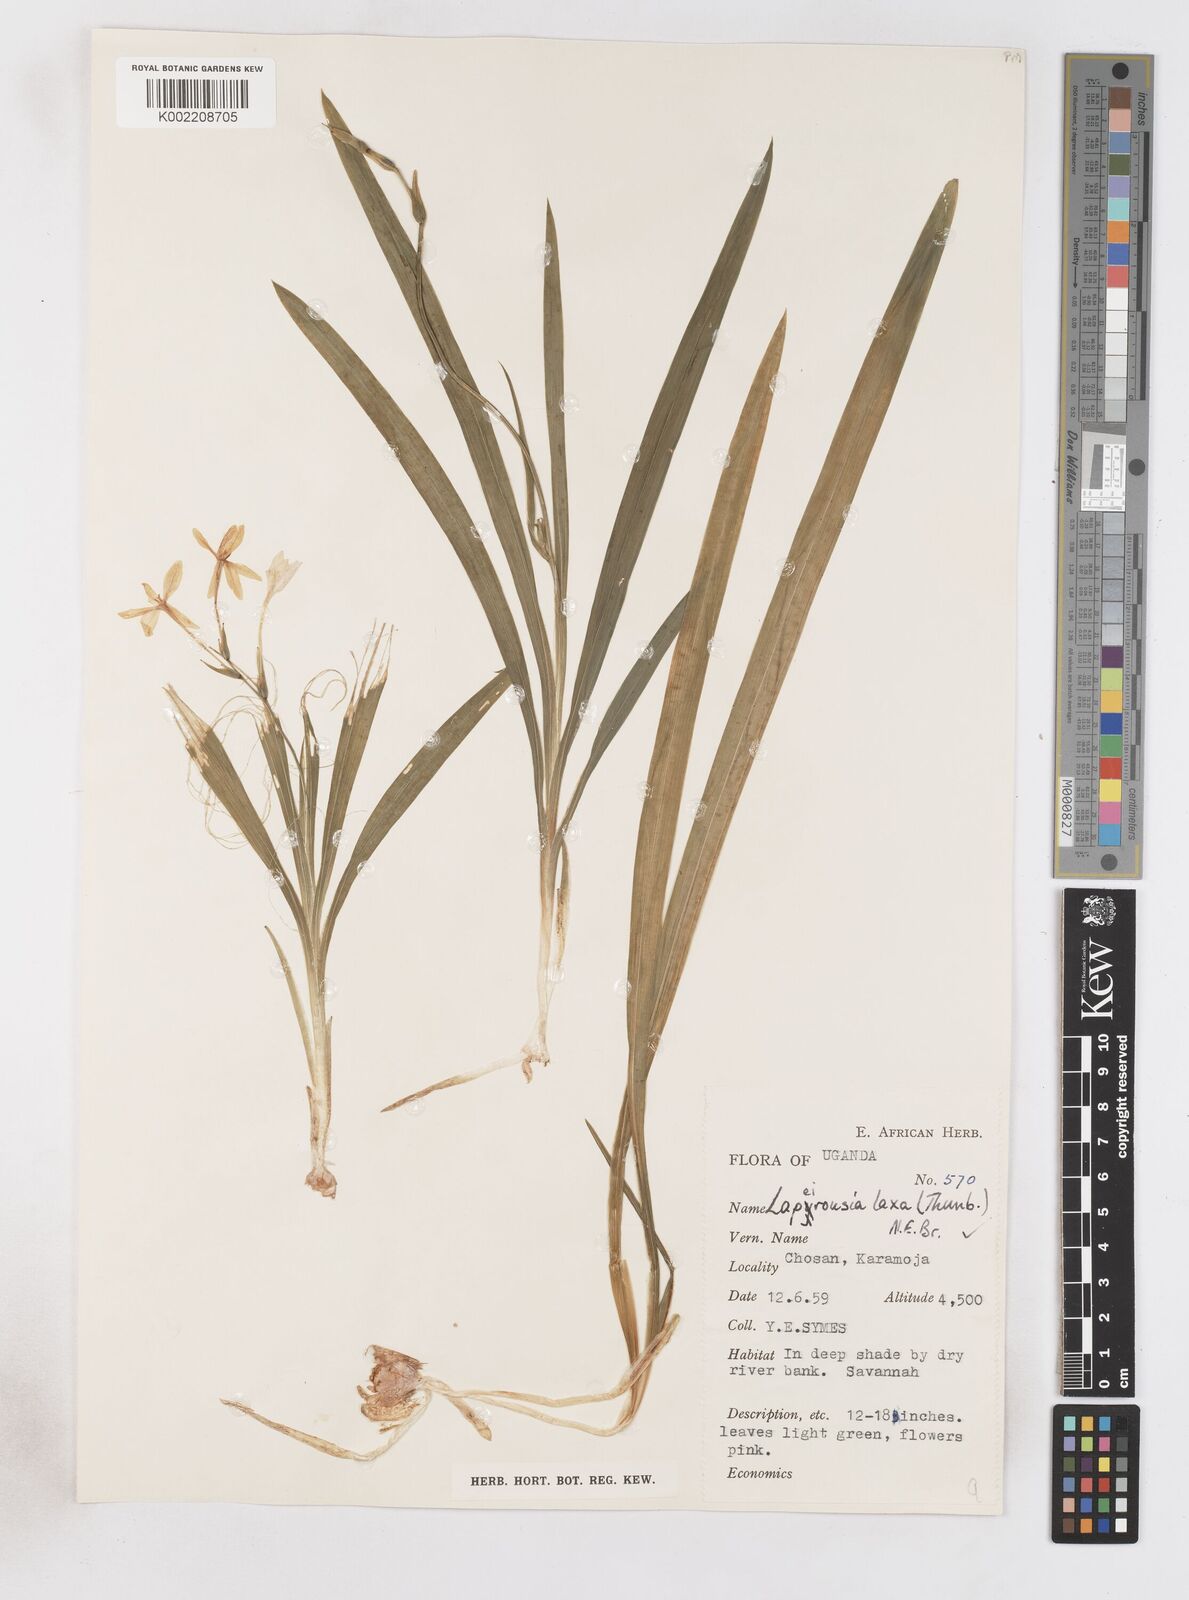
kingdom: Plantae
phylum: Tracheophyta
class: Liliopsida
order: Asparagales
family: Iridaceae
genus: Freesia
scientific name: Freesia laxa
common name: False freesia
